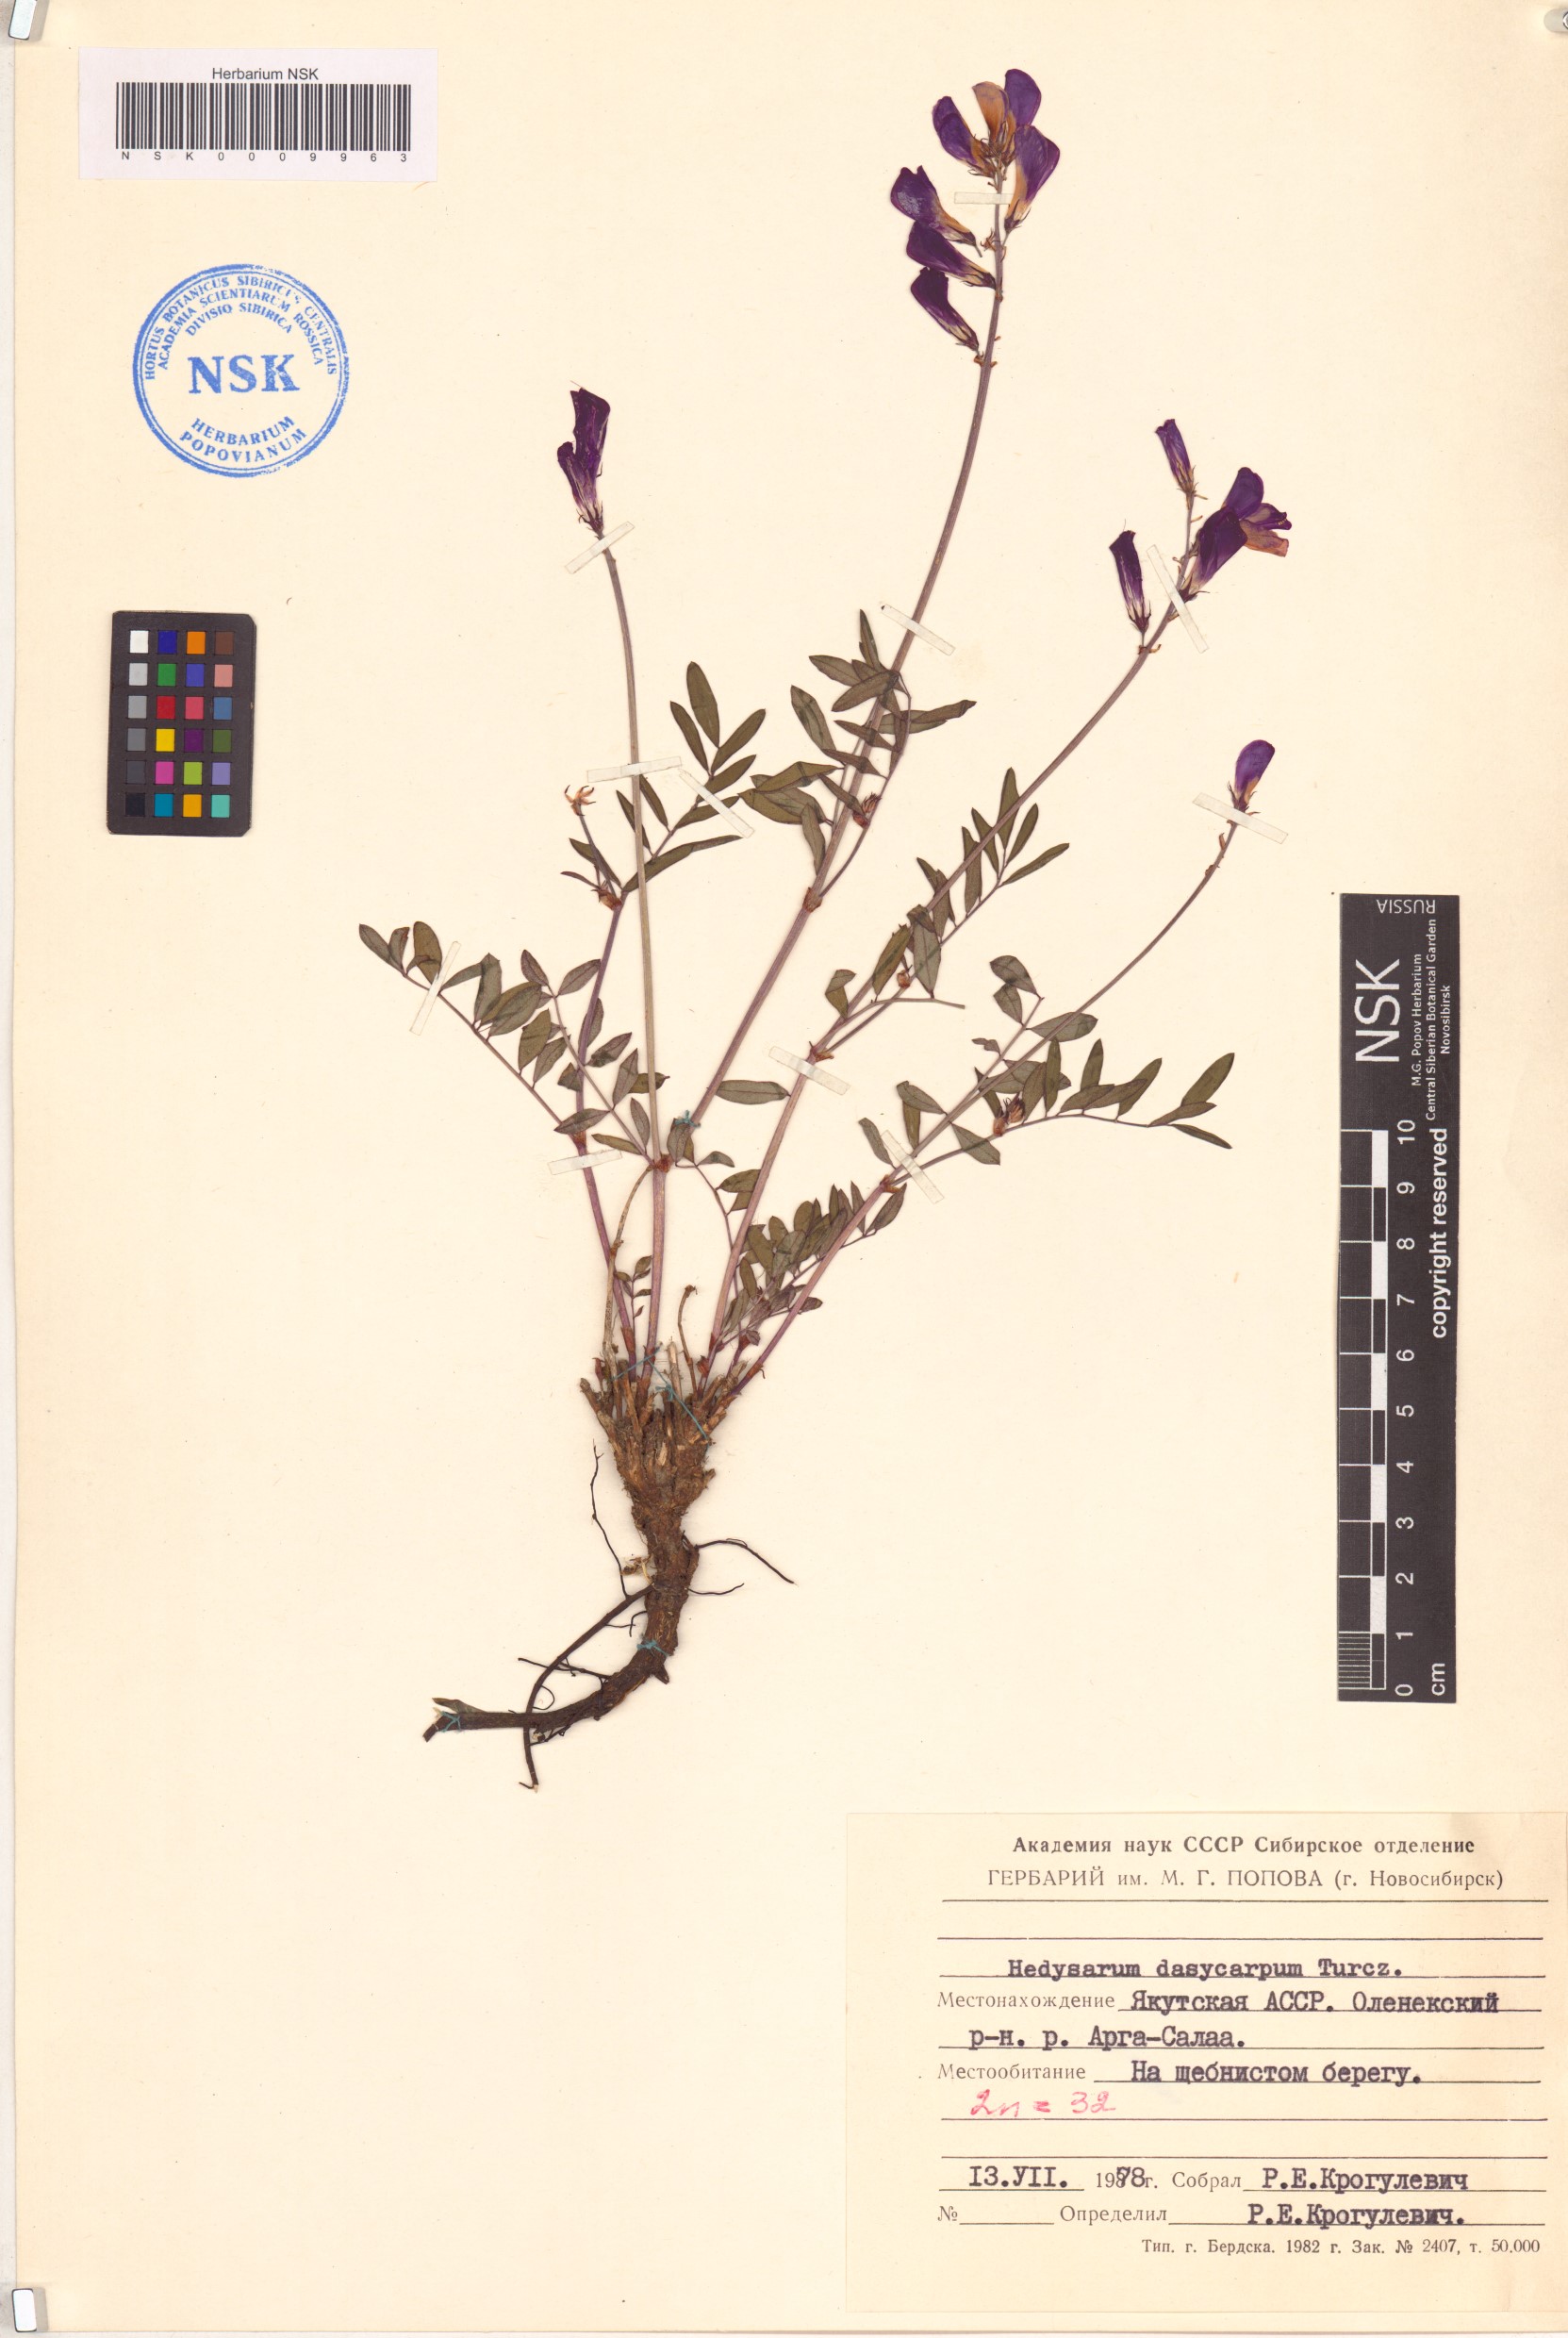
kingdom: Plantae
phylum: Tracheophyta
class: Magnoliopsida
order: Fabales
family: Fabaceae
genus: Hedysarum
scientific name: Hedysarum dasycarpum
